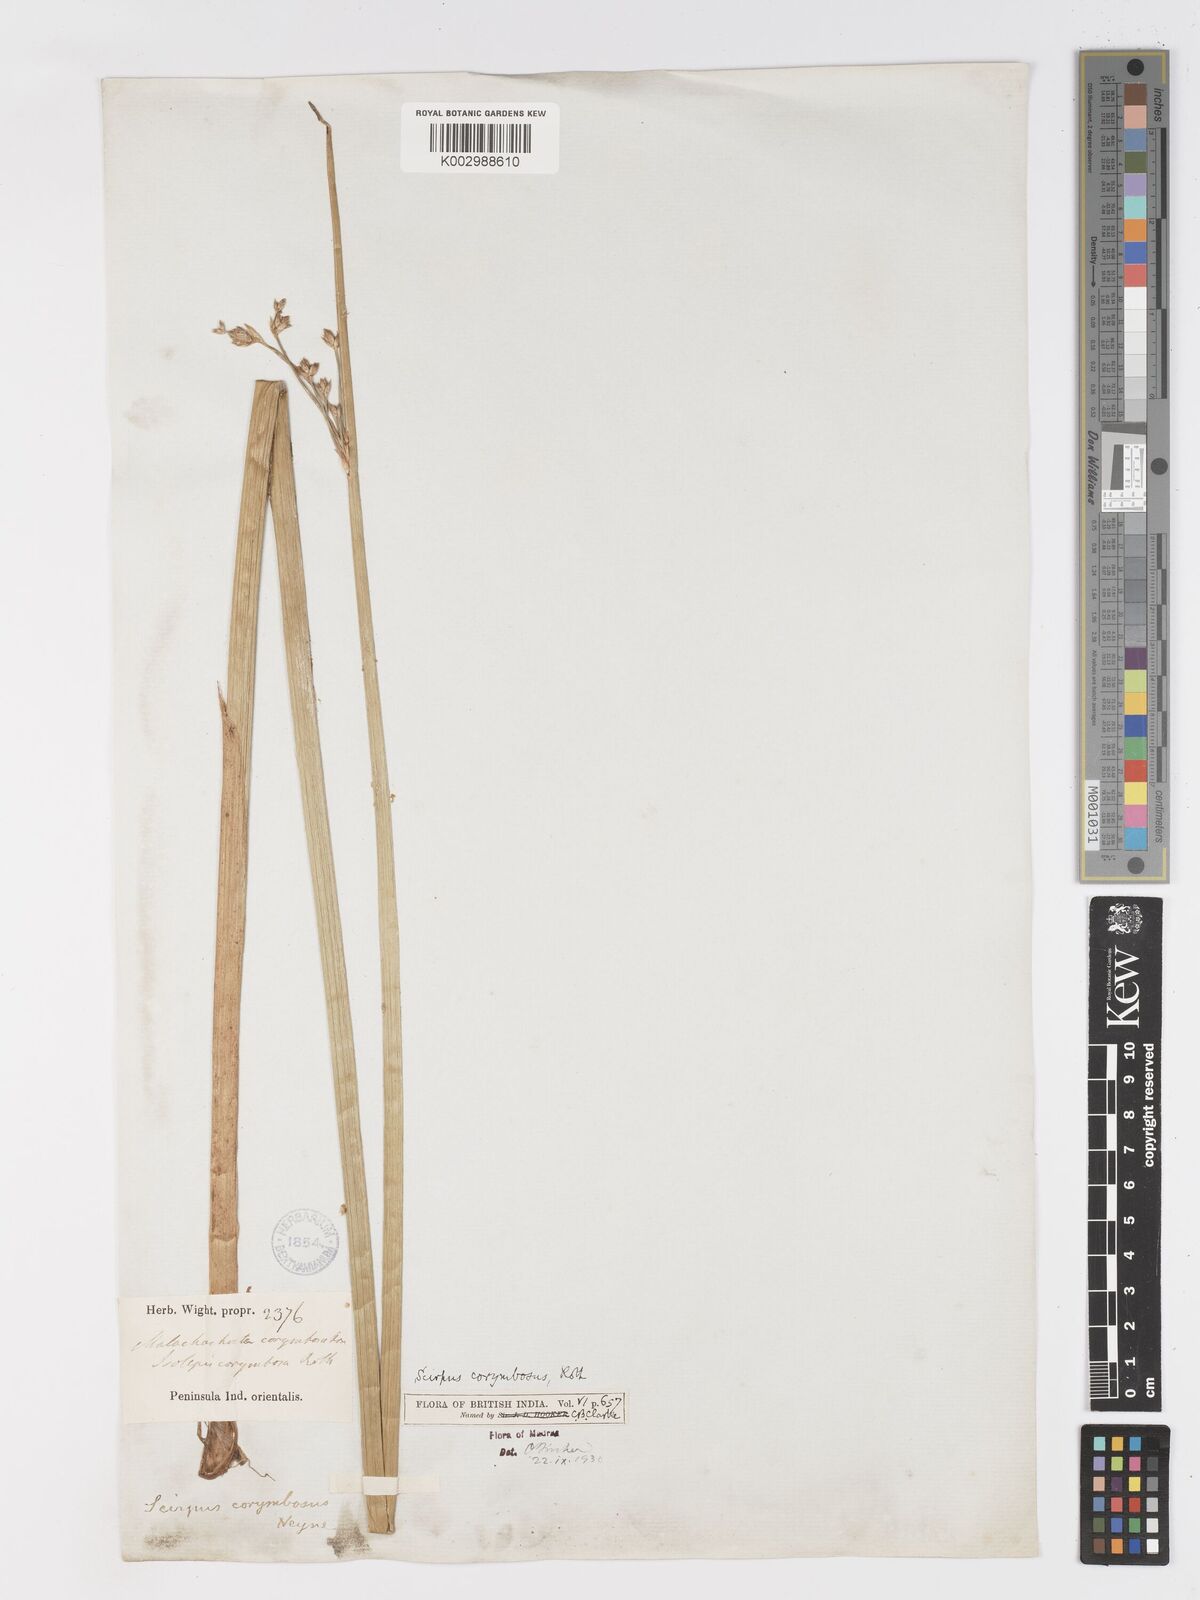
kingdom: Plantae
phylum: Tracheophyta
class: Liliopsida
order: Poales
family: Cyperaceae
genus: Schoenoplectiella
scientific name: Schoenoplectiella corymbosa
